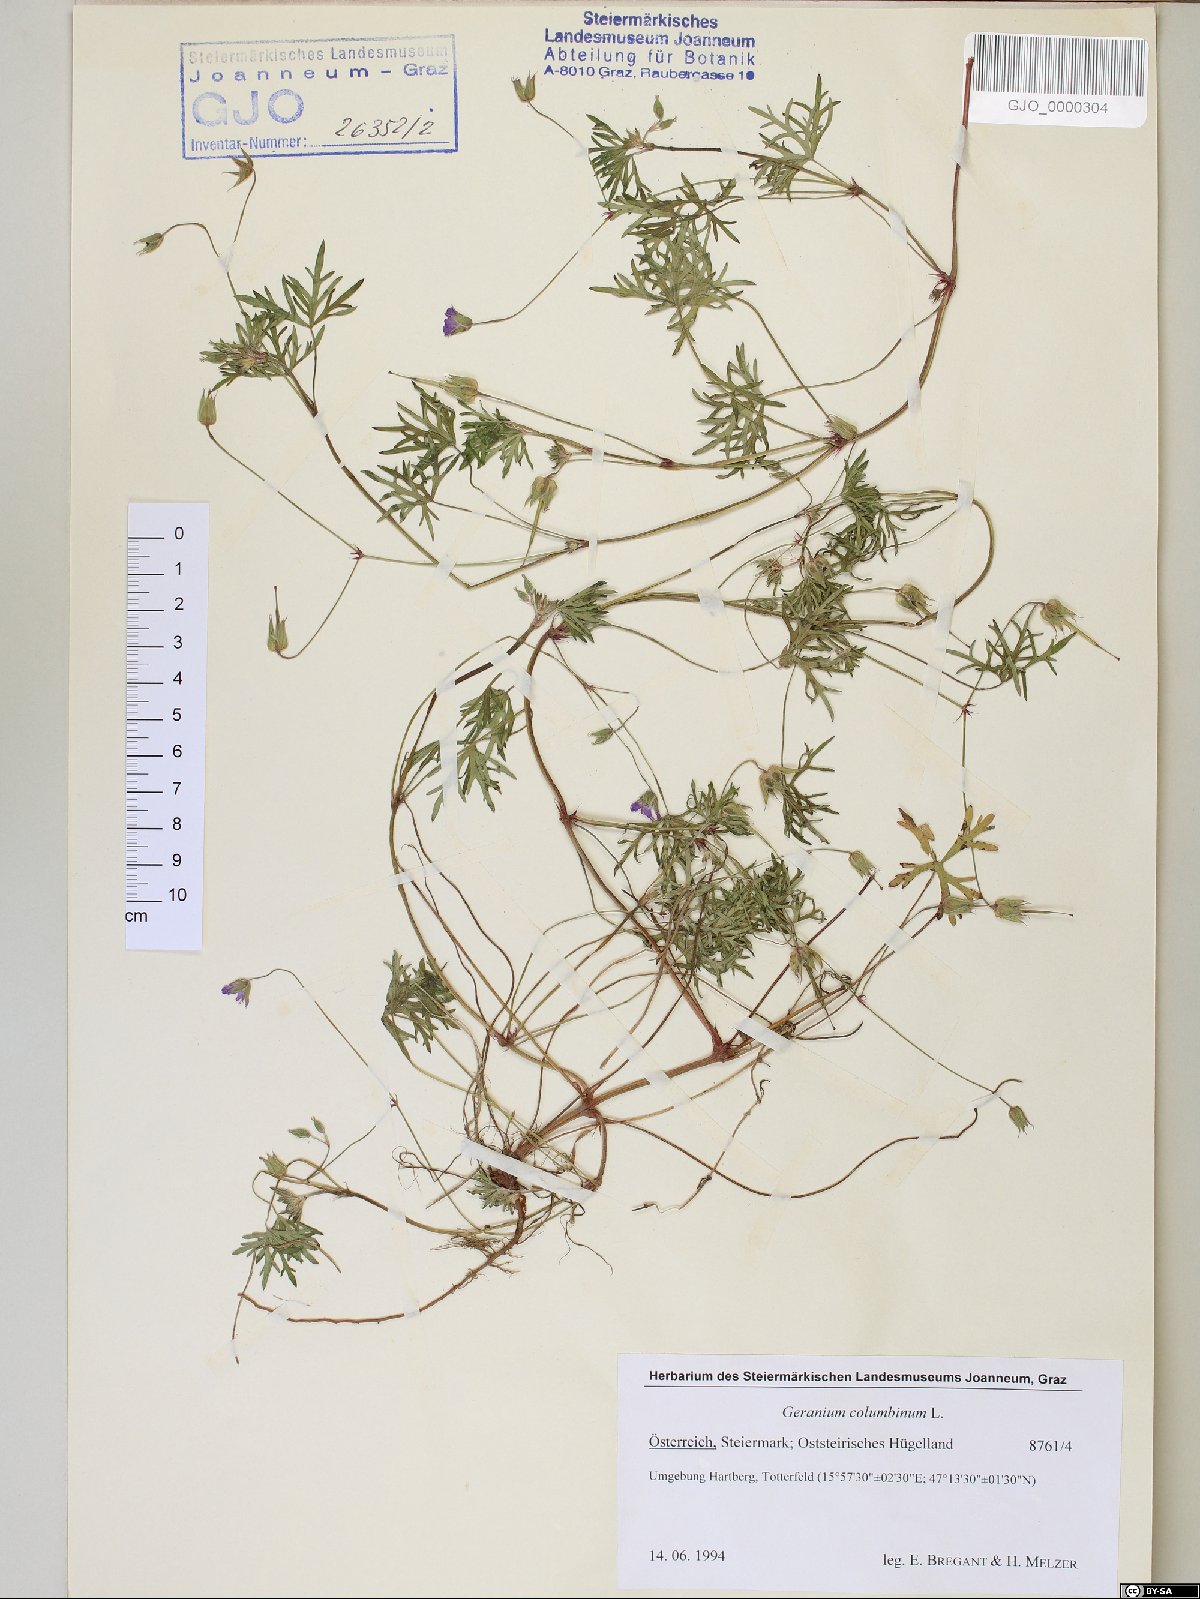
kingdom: Plantae
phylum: Tracheophyta
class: Magnoliopsida
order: Geraniales
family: Geraniaceae
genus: Geranium
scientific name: Geranium columbinum
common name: Long-stalked crane's-bill
